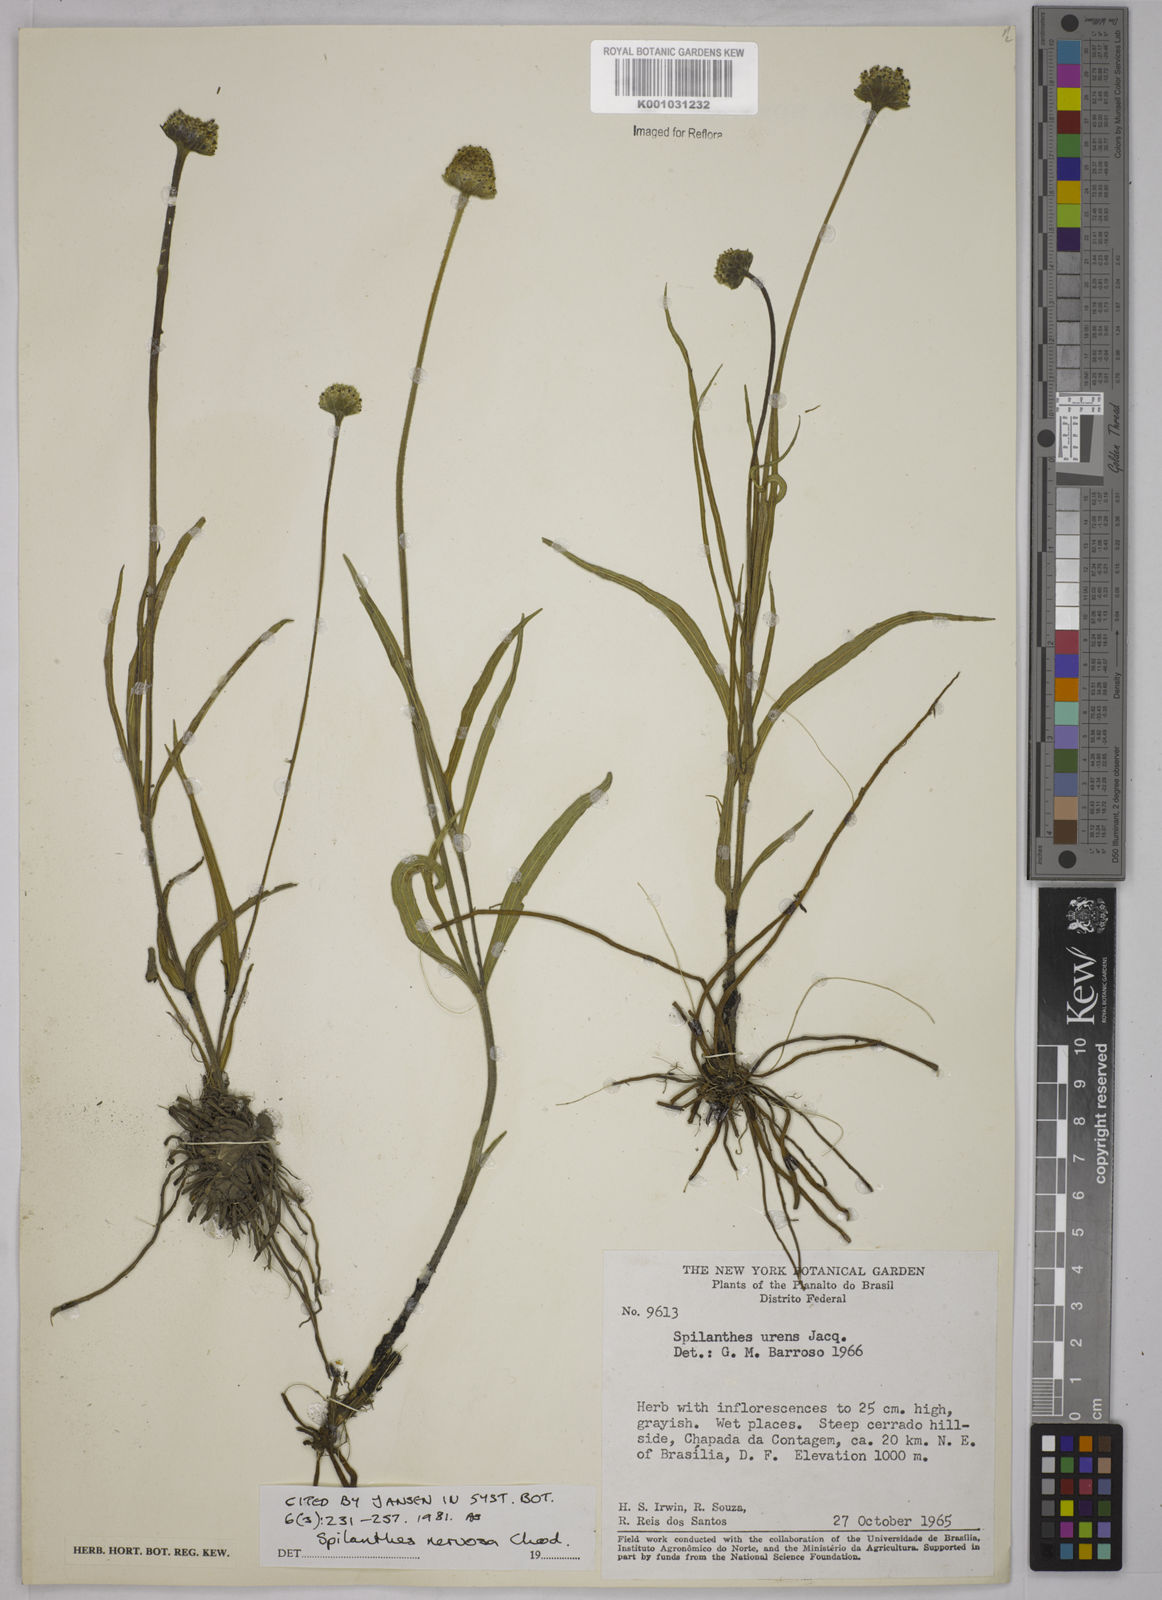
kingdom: Plantae
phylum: Tracheophyta
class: Magnoliopsida
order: Asterales
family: Asteraceae
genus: Spilanthes
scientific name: Spilanthes nervosa
